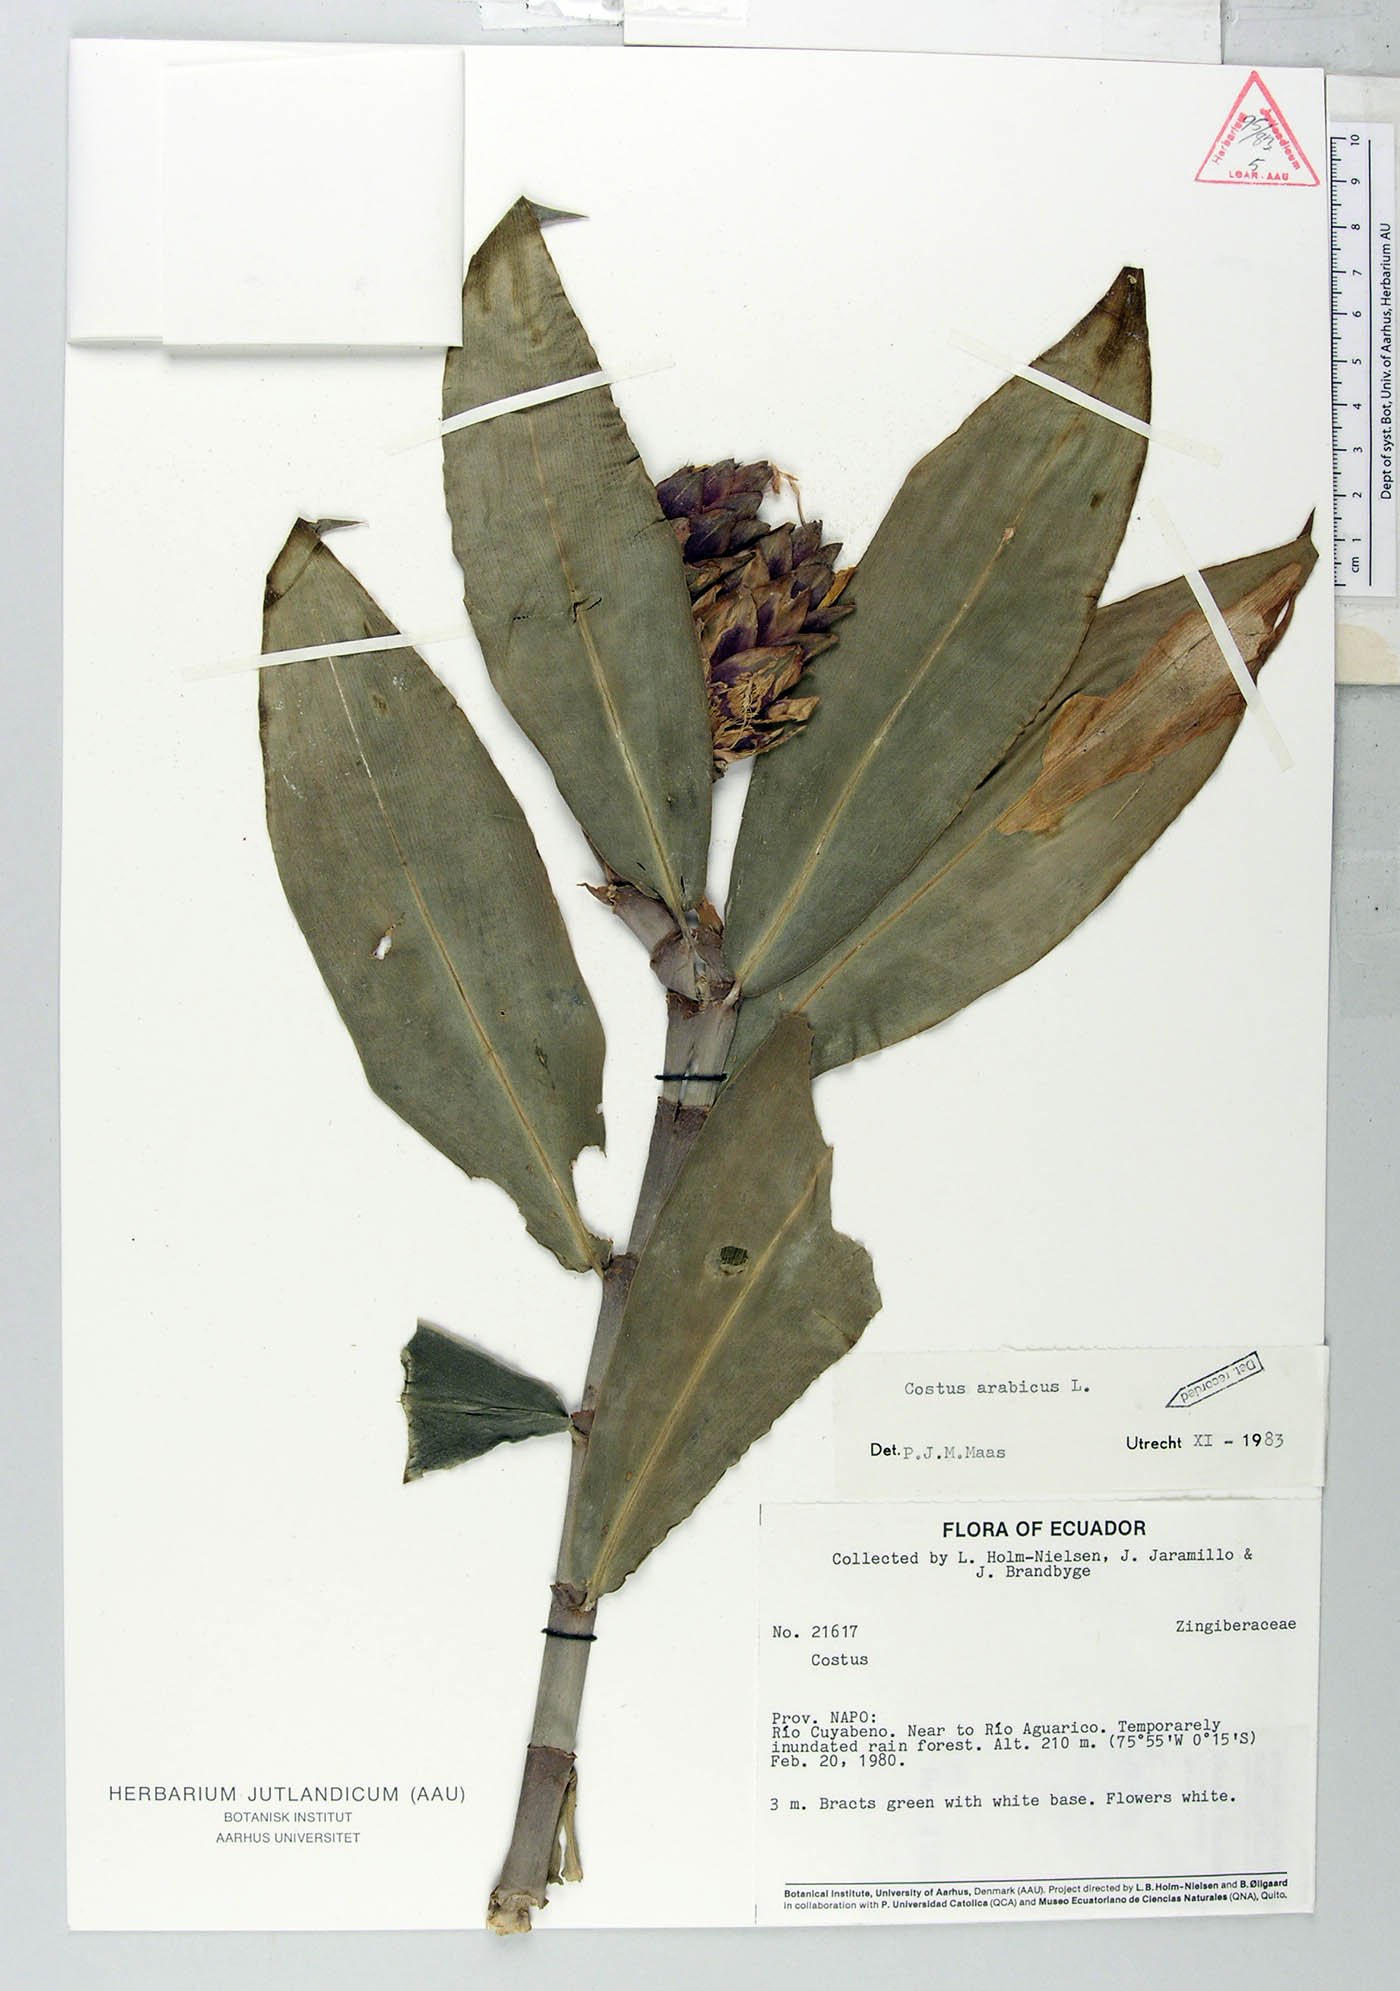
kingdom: Plantae
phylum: Tracheophyta
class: Liliopsida
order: Zingiberales
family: Costaceae
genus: Costus
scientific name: Costus arabicus
